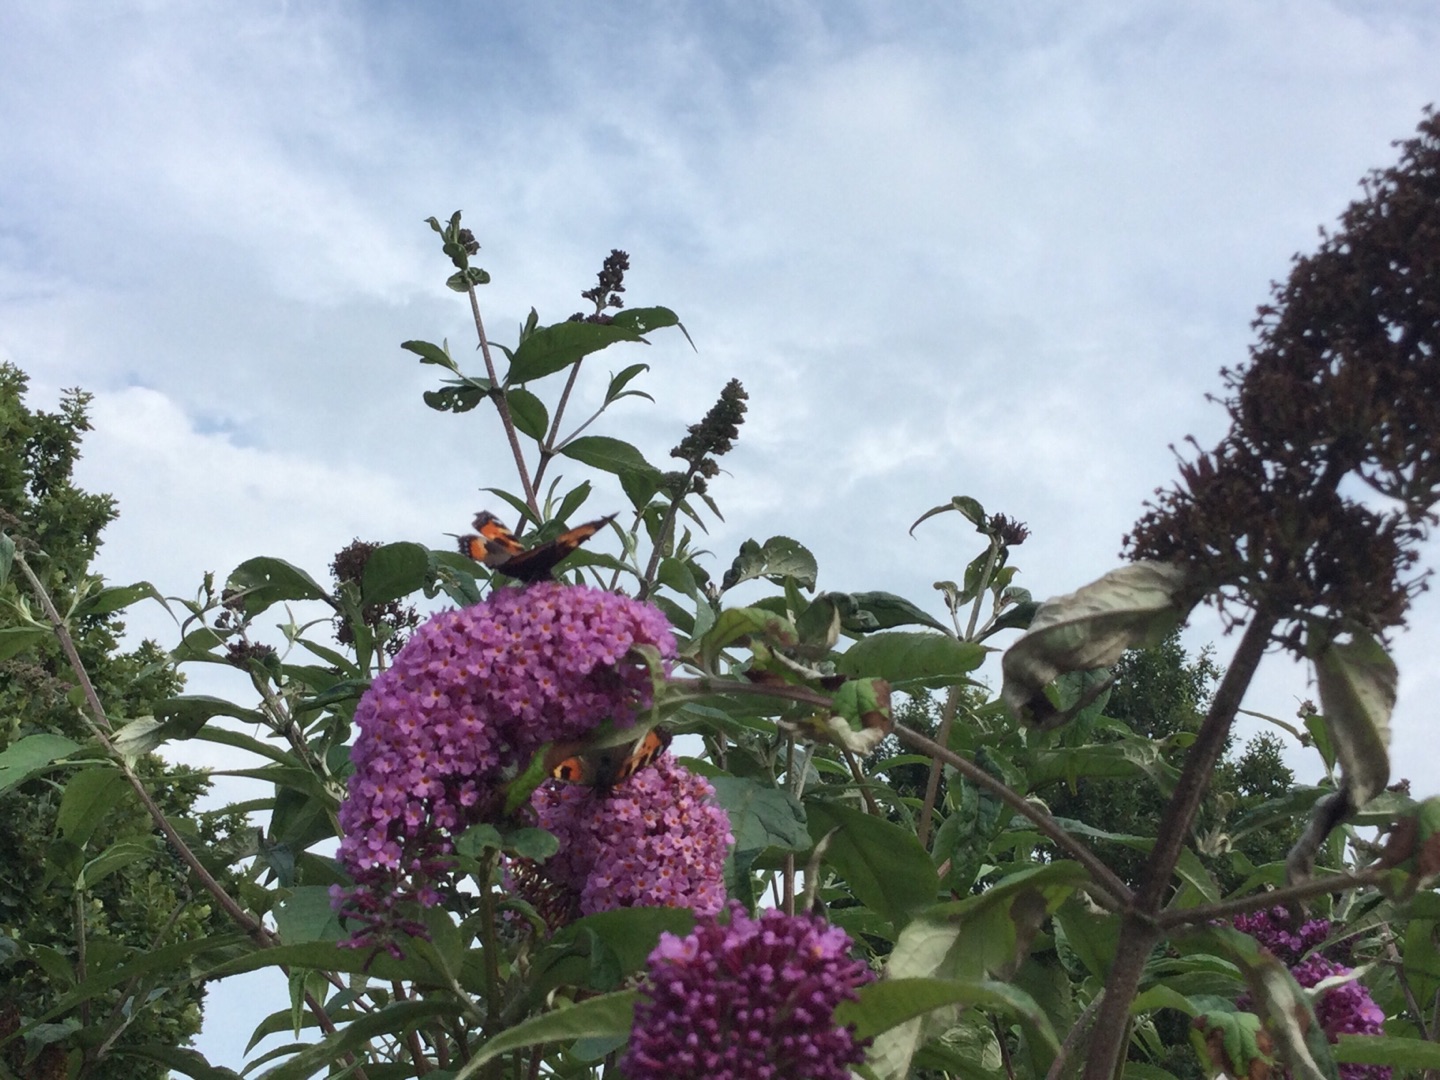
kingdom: Animalia
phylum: Arthropoda
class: Insecta
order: Lepidoptera
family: Nymphalidae
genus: Aglais
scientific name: Aglais urticae
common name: Nældens takvinge
